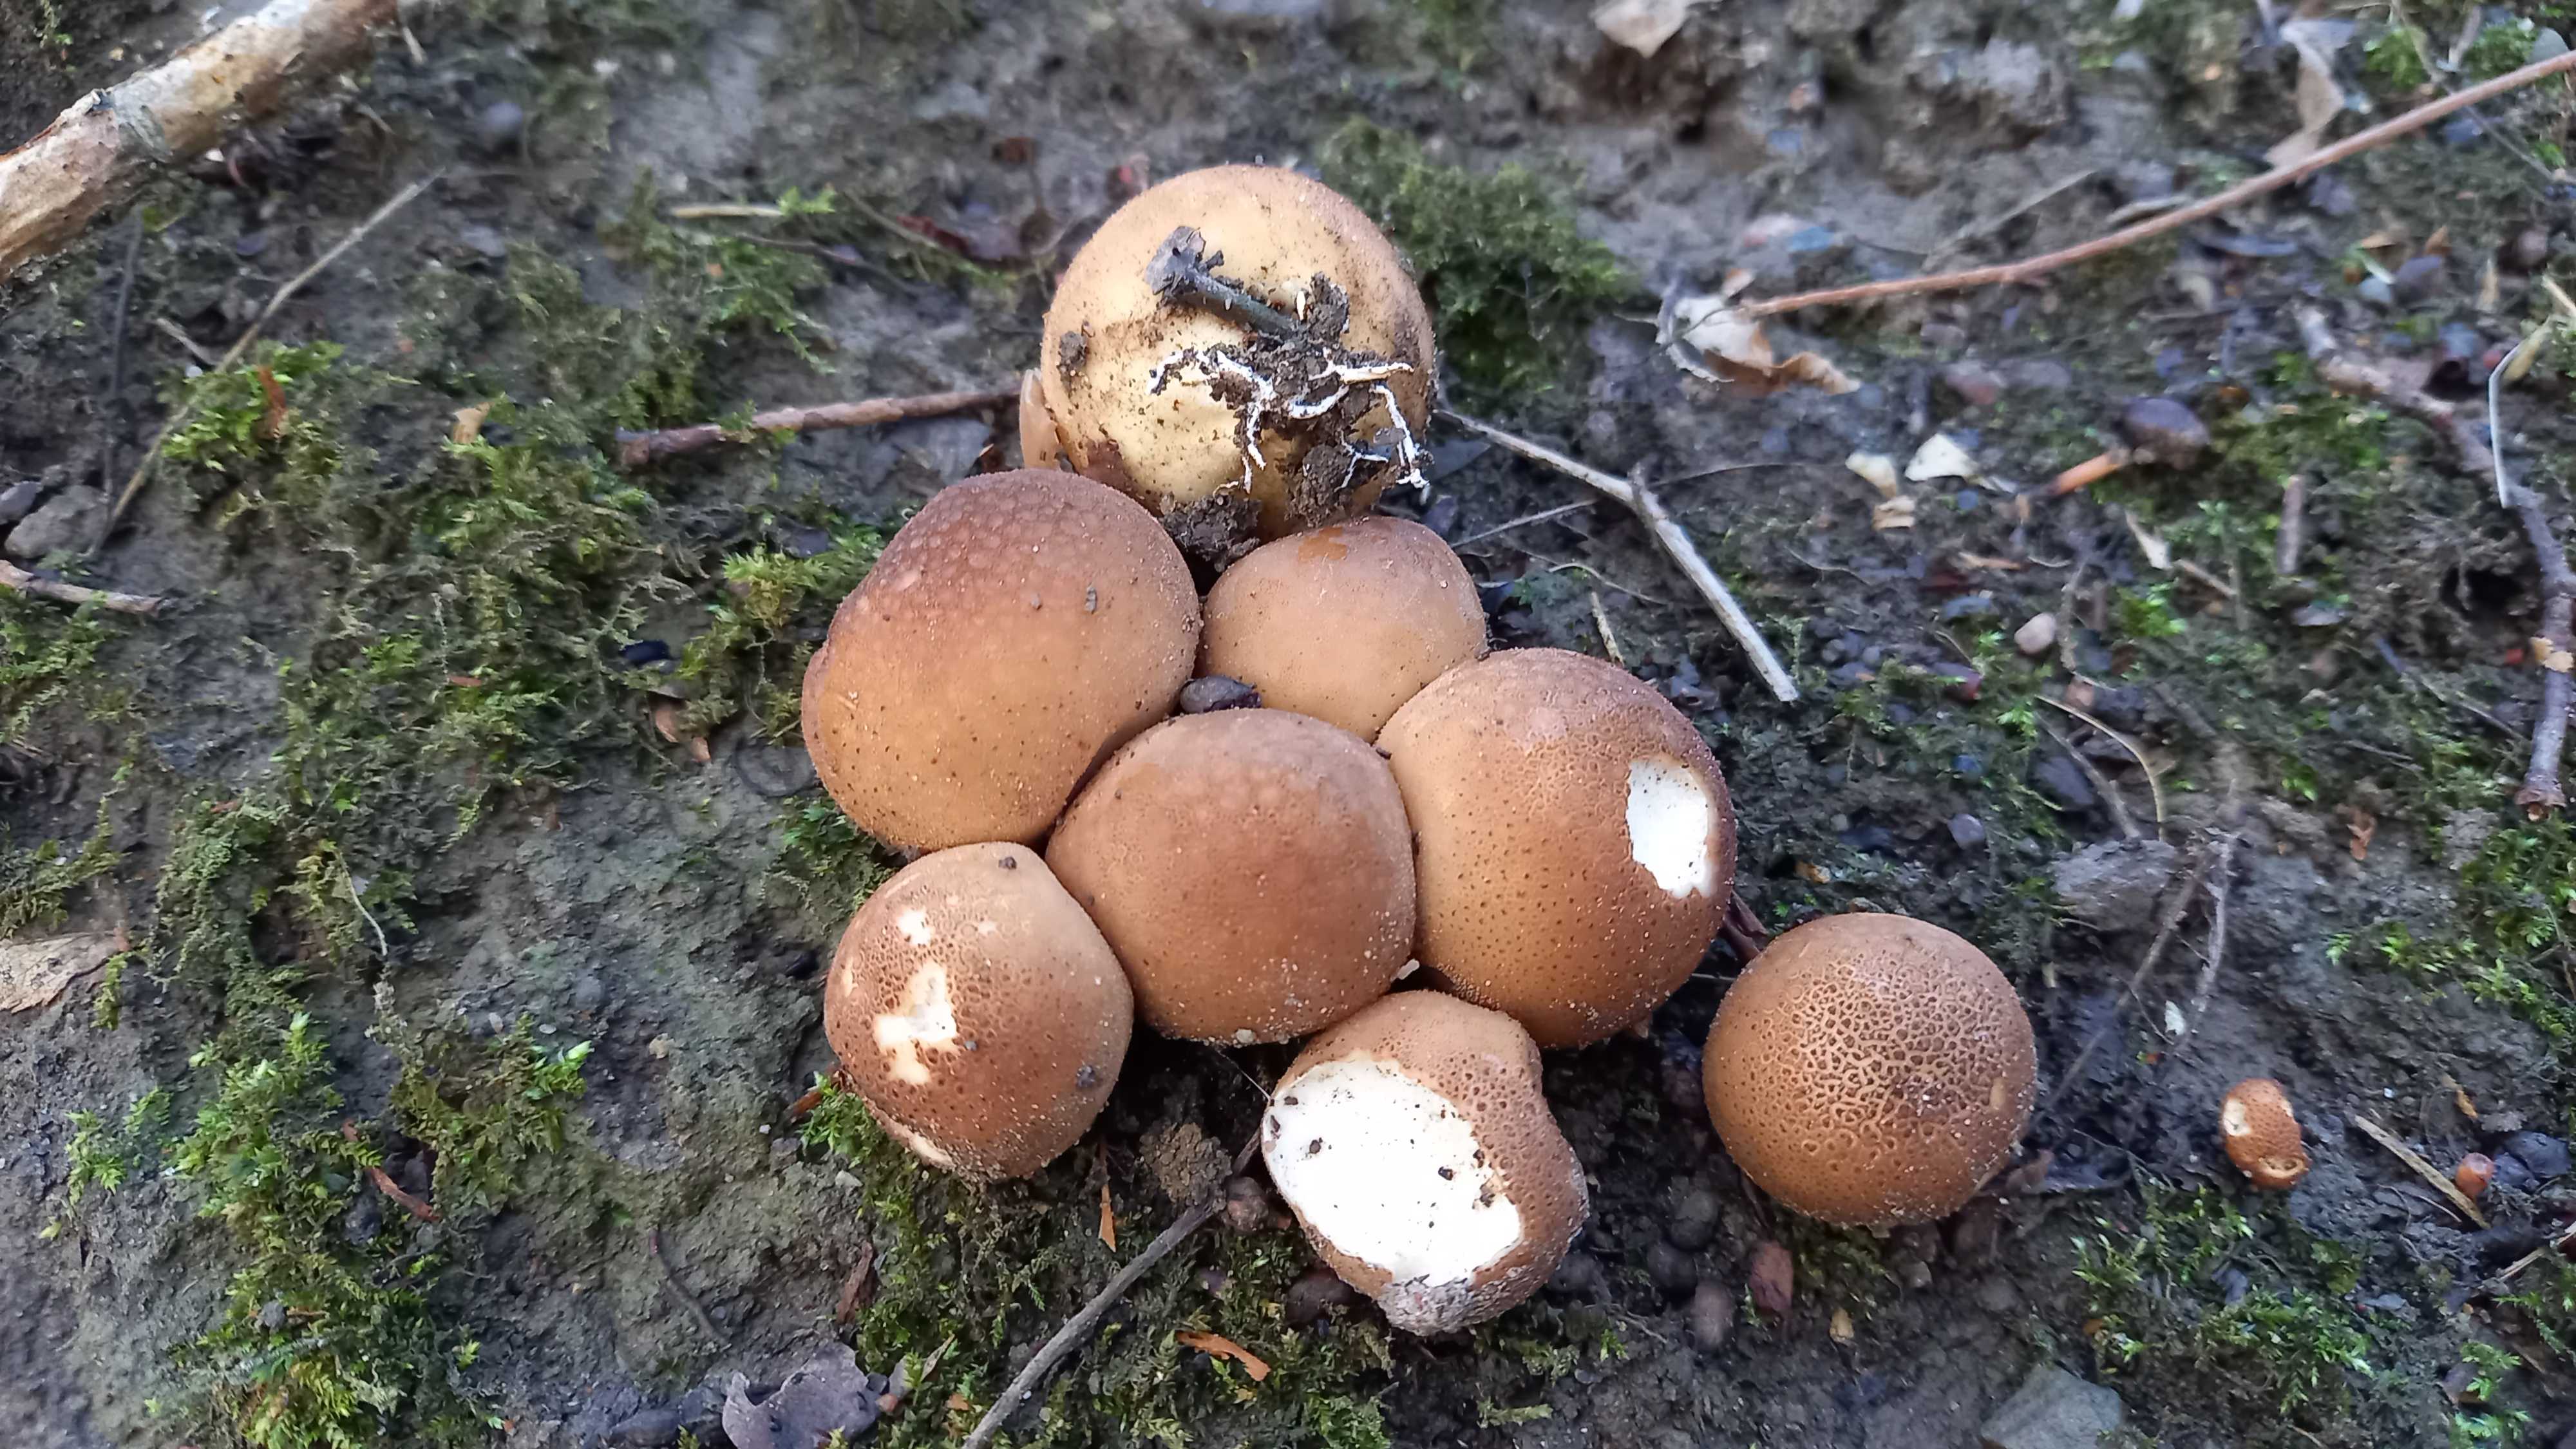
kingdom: Fungi
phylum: Basidiomycota
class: Agaricomycetes
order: Agaricales
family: Lycoperdaceae
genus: Apioperdon
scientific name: Apioperdon pyriforme
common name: pære-støvbold
